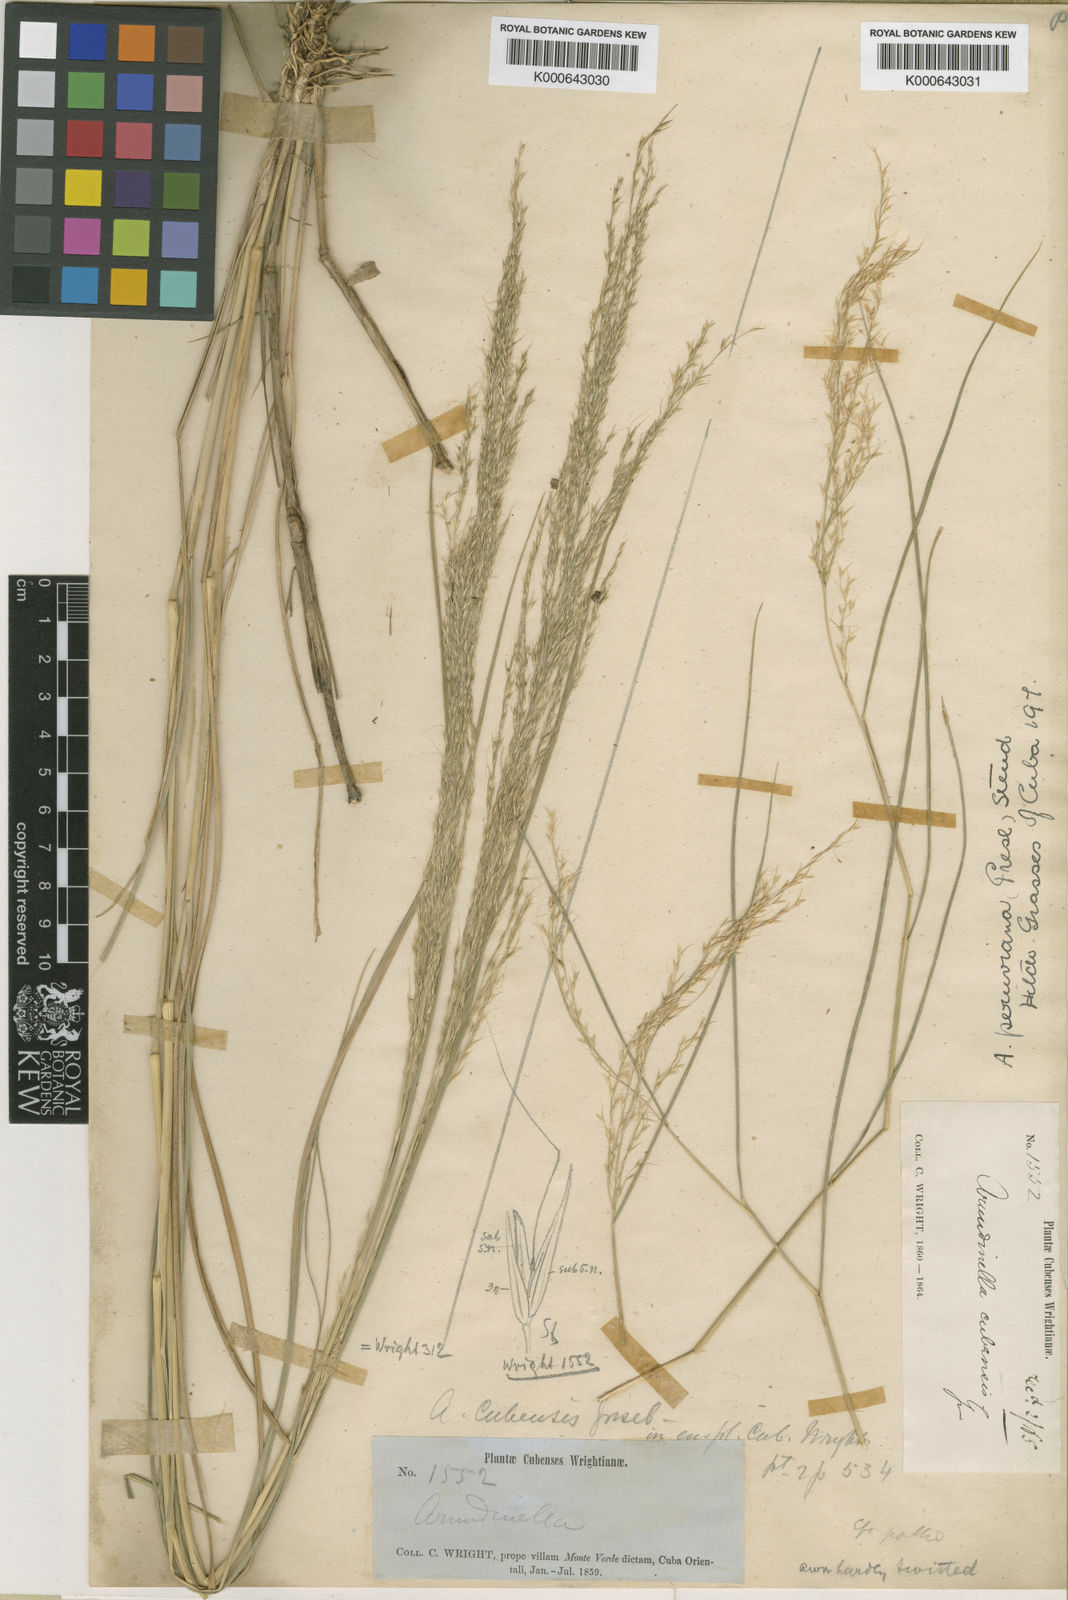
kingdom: Plantae
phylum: Tracheophyta
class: Liliopsida
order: Poales
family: Poaceae
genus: Arundinella
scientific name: Arundinella berteroniana
